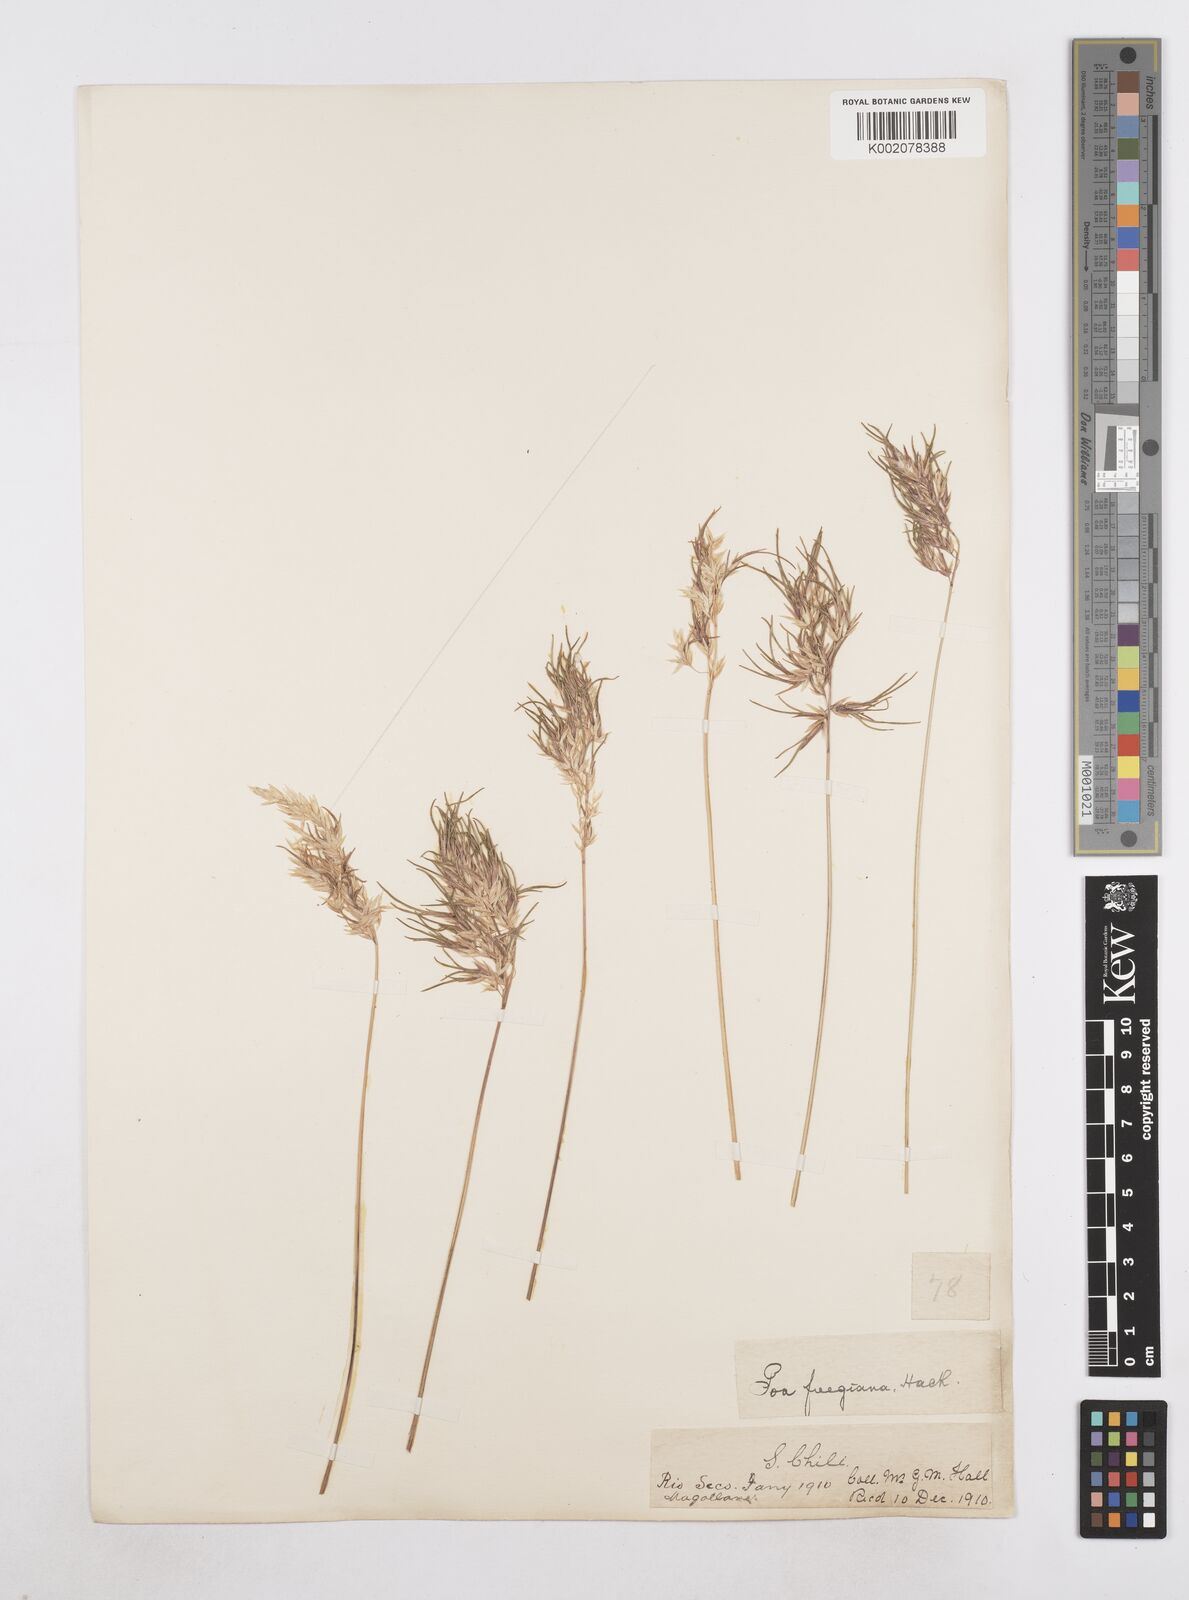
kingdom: Plantae
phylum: Tracheophyta
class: Liliopsida
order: Poales
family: Poaceae
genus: Poa
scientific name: Poa alopecurus
